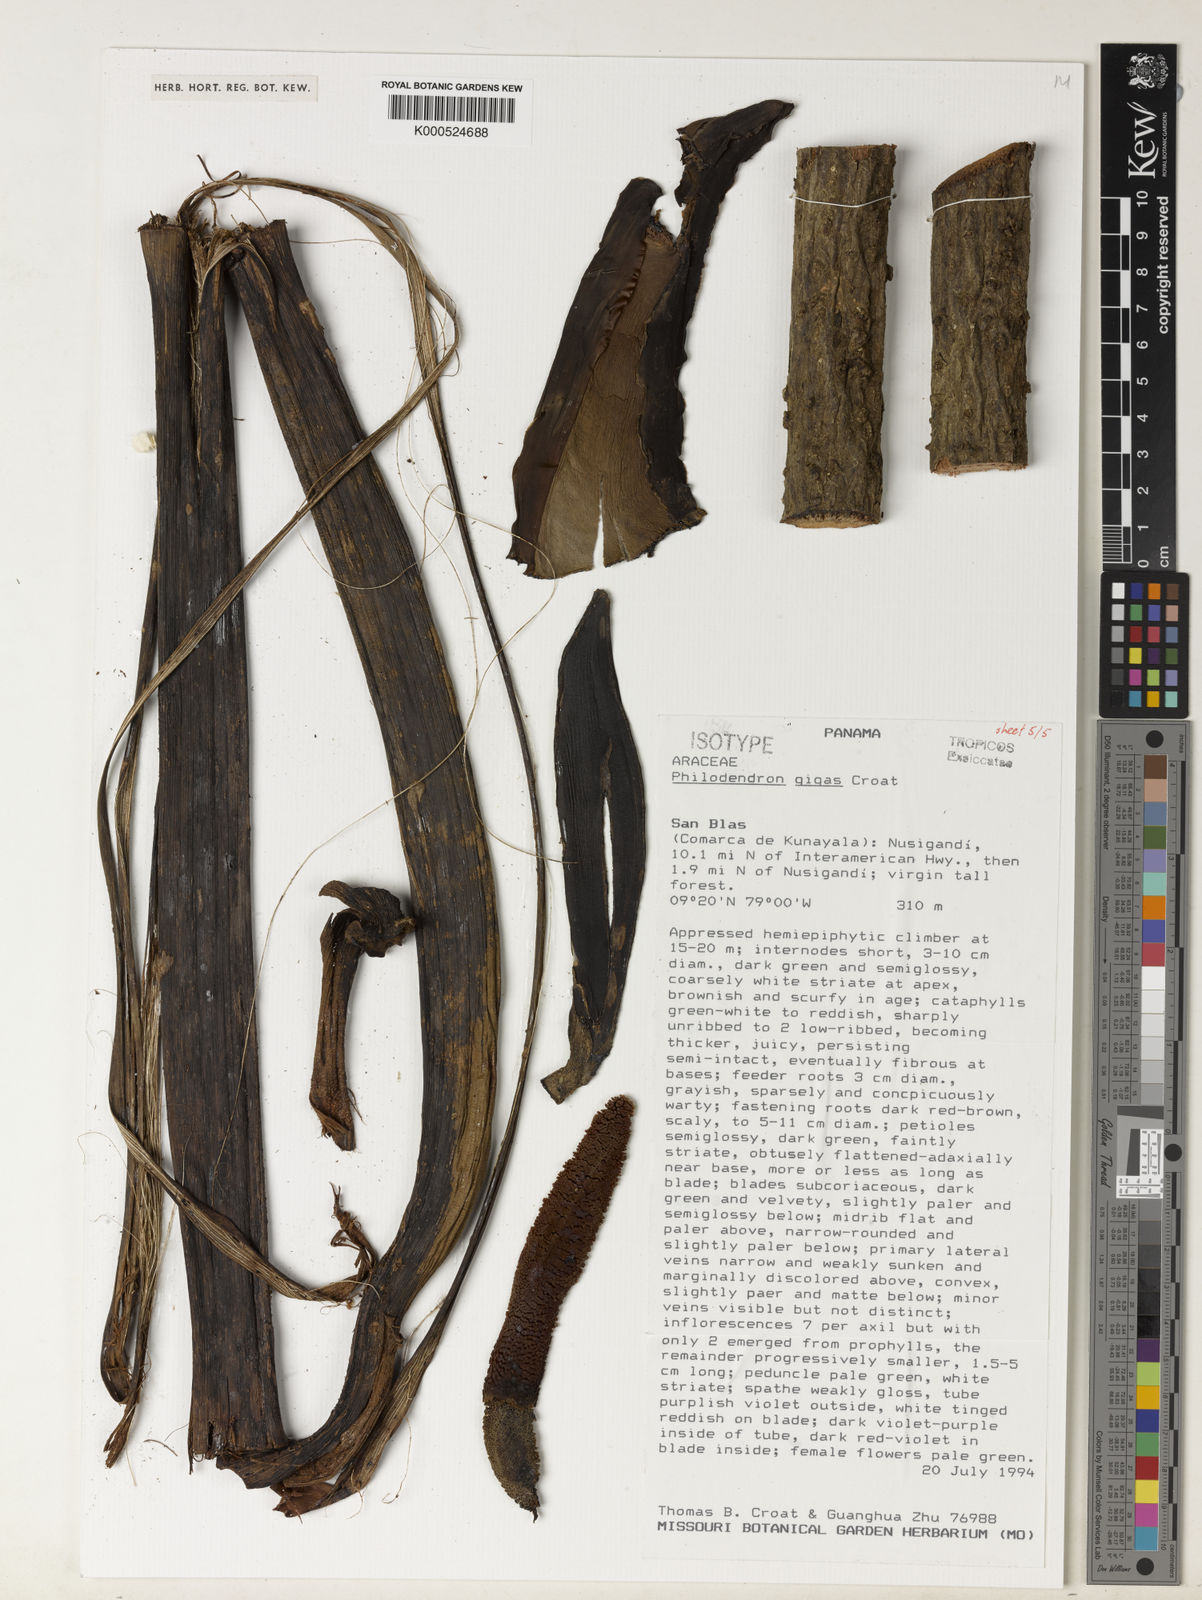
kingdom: Plantae
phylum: Tracheophyta
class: Liliopsida
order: Alismatales
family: Araceae
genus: Philodendron
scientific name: Philodendron gigas
